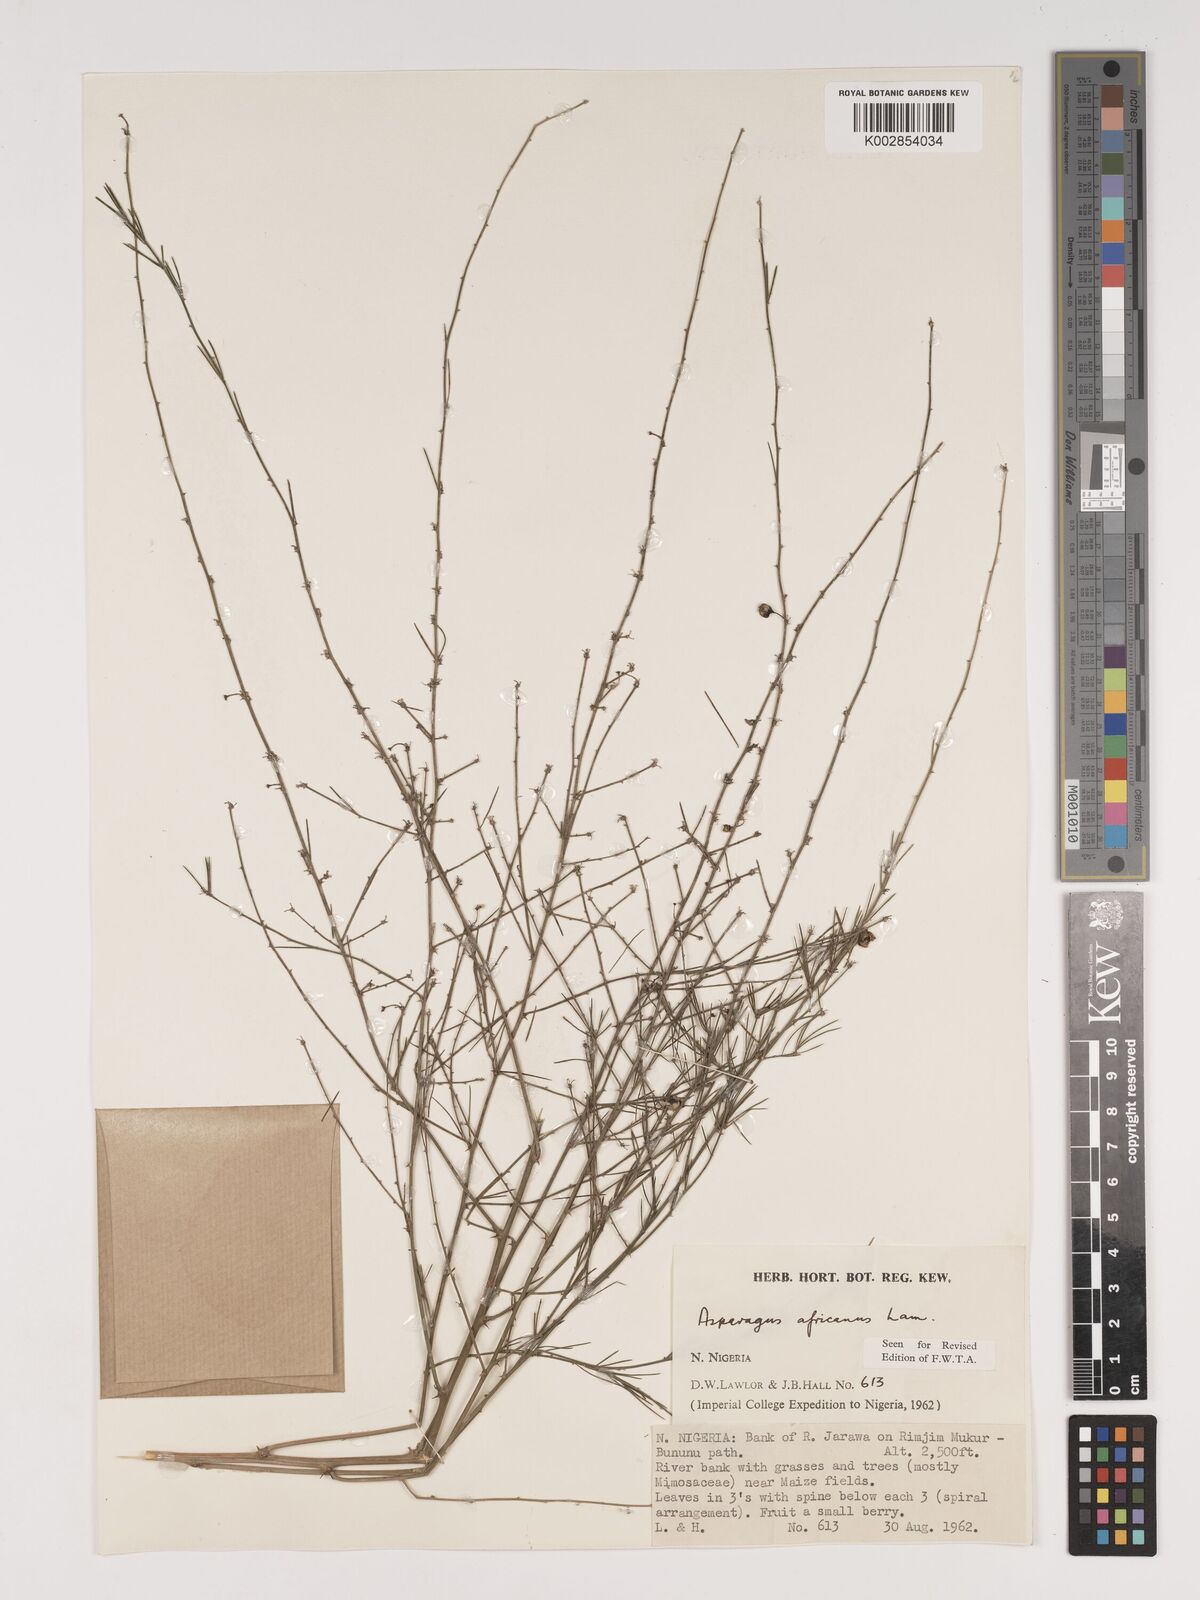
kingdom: Plantae
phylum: Tracheophyta
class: Liliopsida
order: Asparagales
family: Asparagaceae
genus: Asparagus
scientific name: Asparagus
